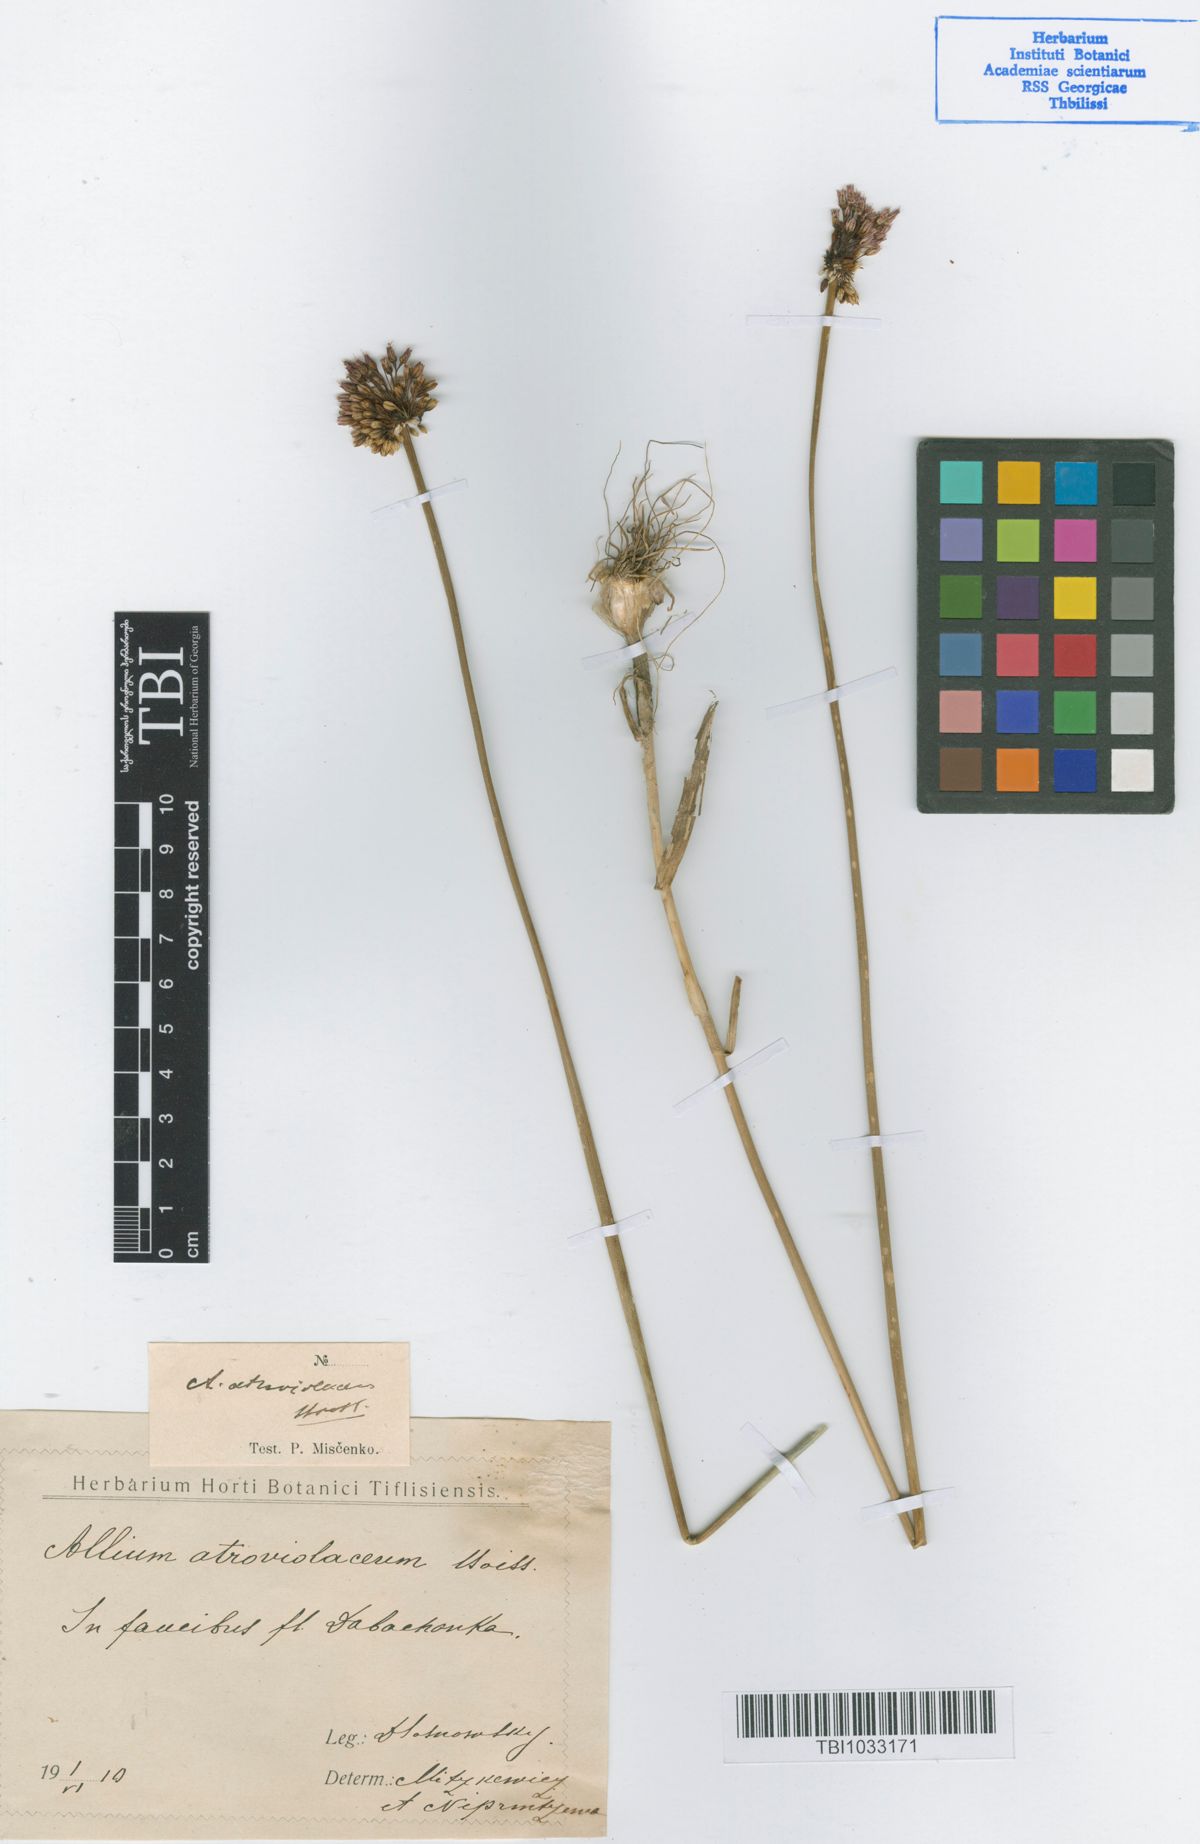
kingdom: Plantae
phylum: Tracheophyta
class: Liliopsida
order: Asparagales
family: Amaryllidaceae
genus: Allium
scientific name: Allium atroviolaceum
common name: Broadleaf wild leek
